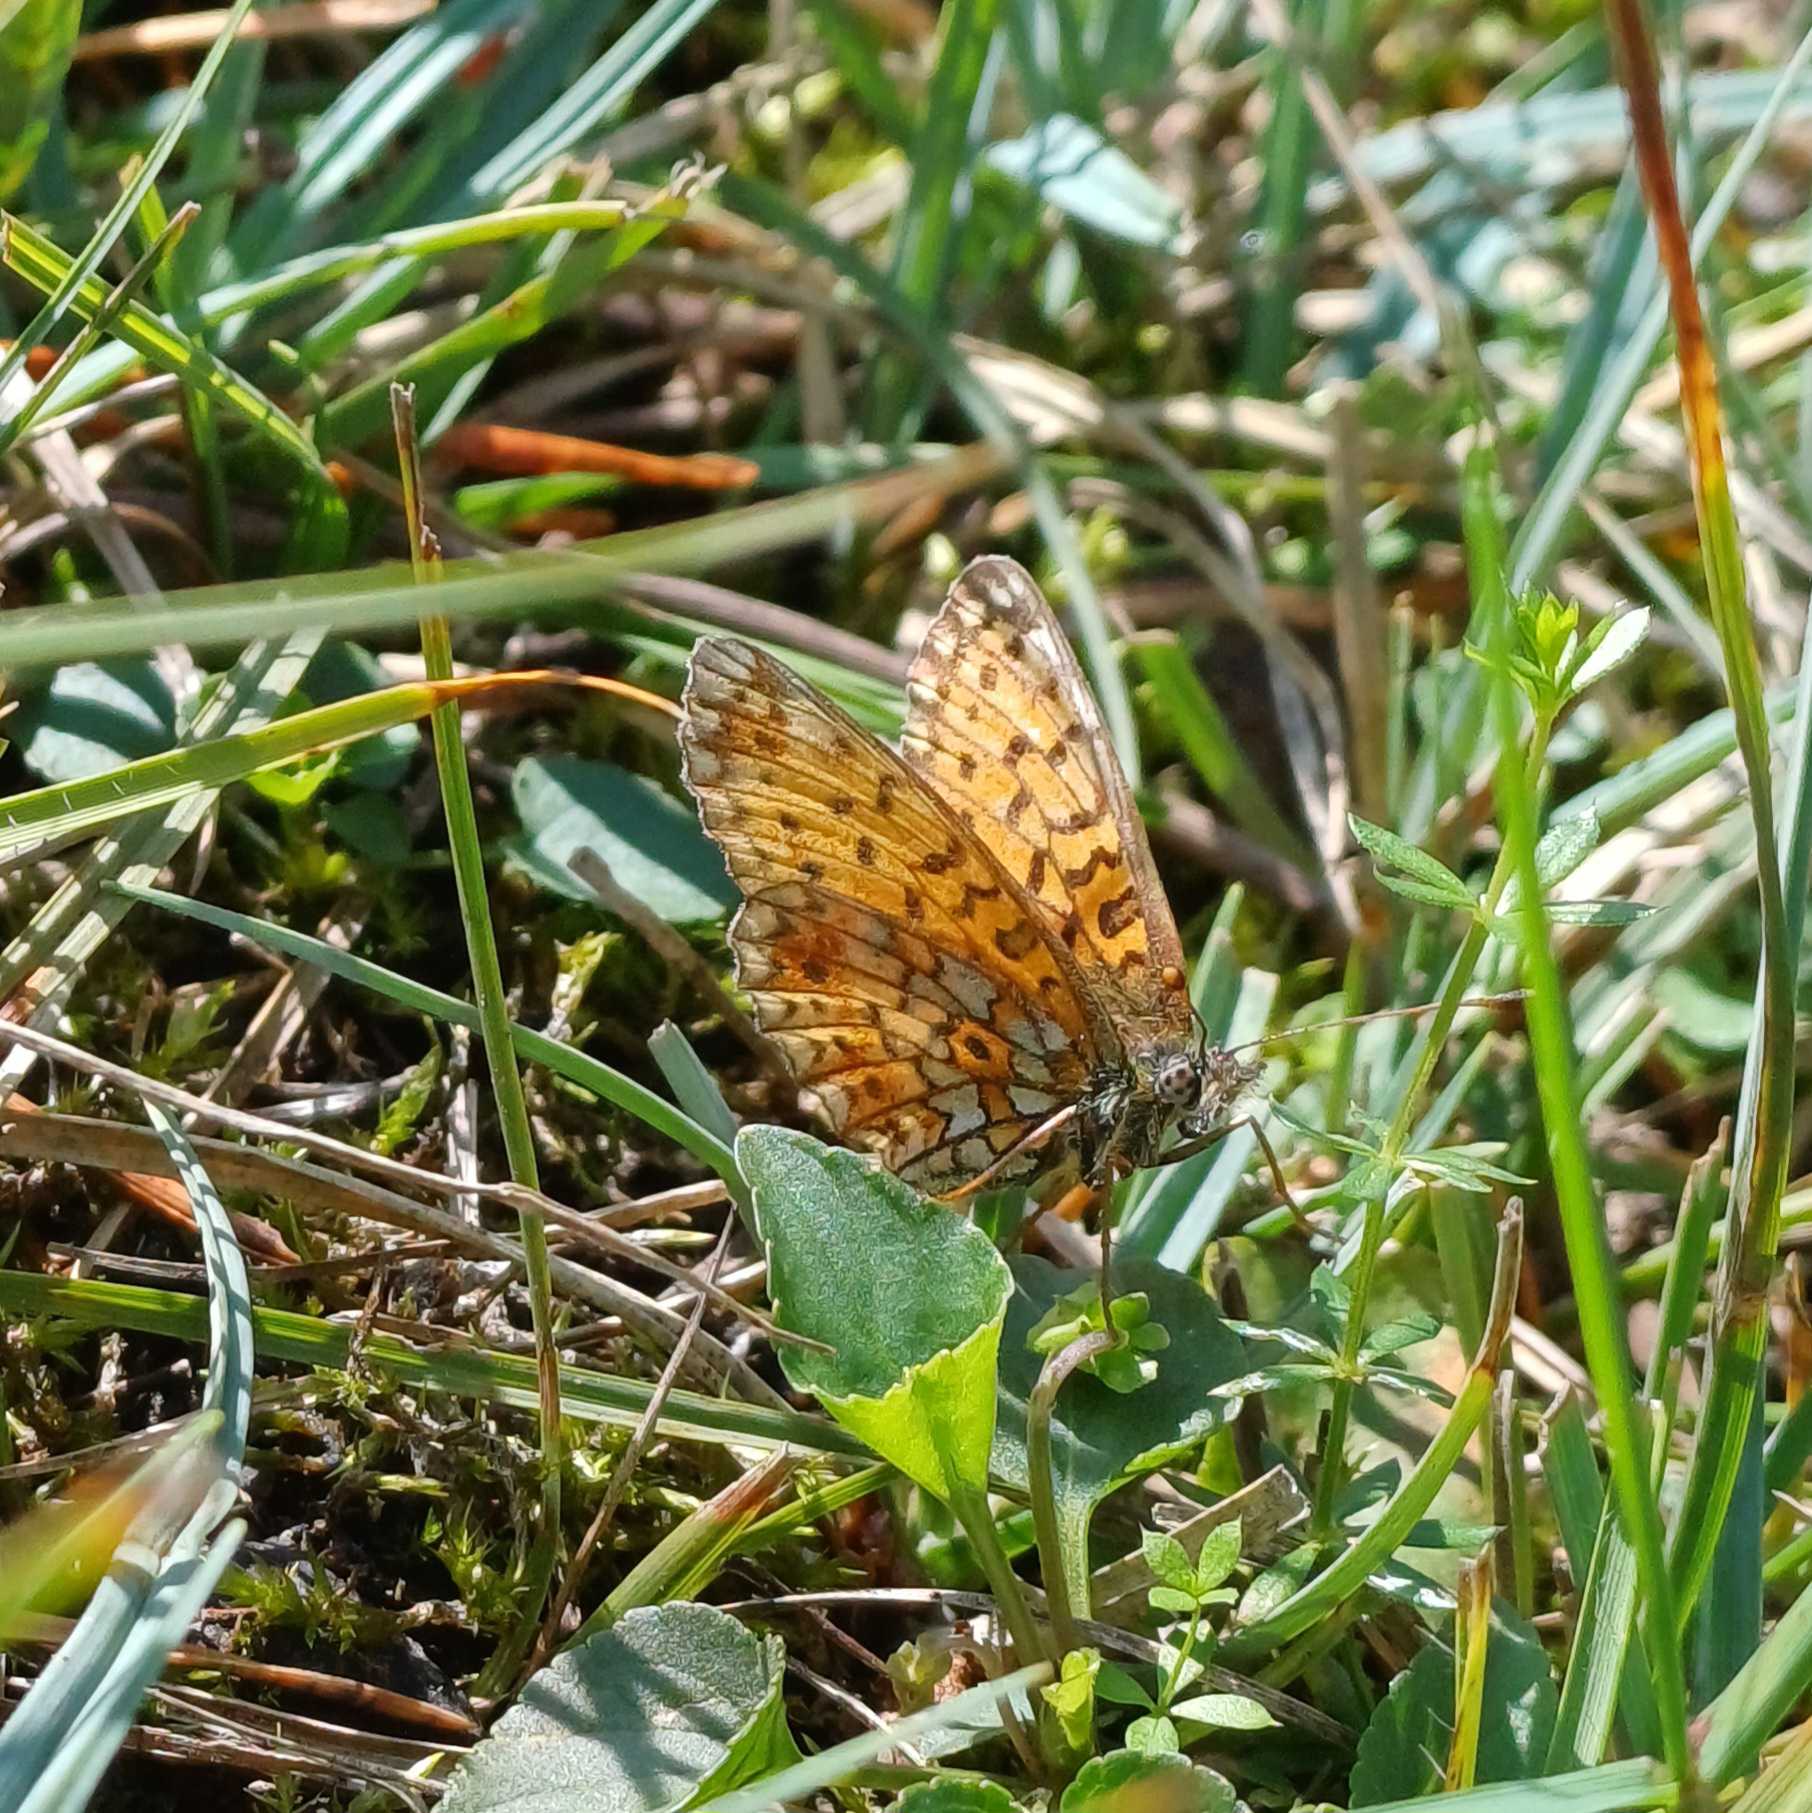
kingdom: Animalia
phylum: Arthropoda
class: Insecta
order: Lepidoptera
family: Nymphalidae
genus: Boloria
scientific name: Boloria selene
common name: Brunlig perlemorsommerfugl
